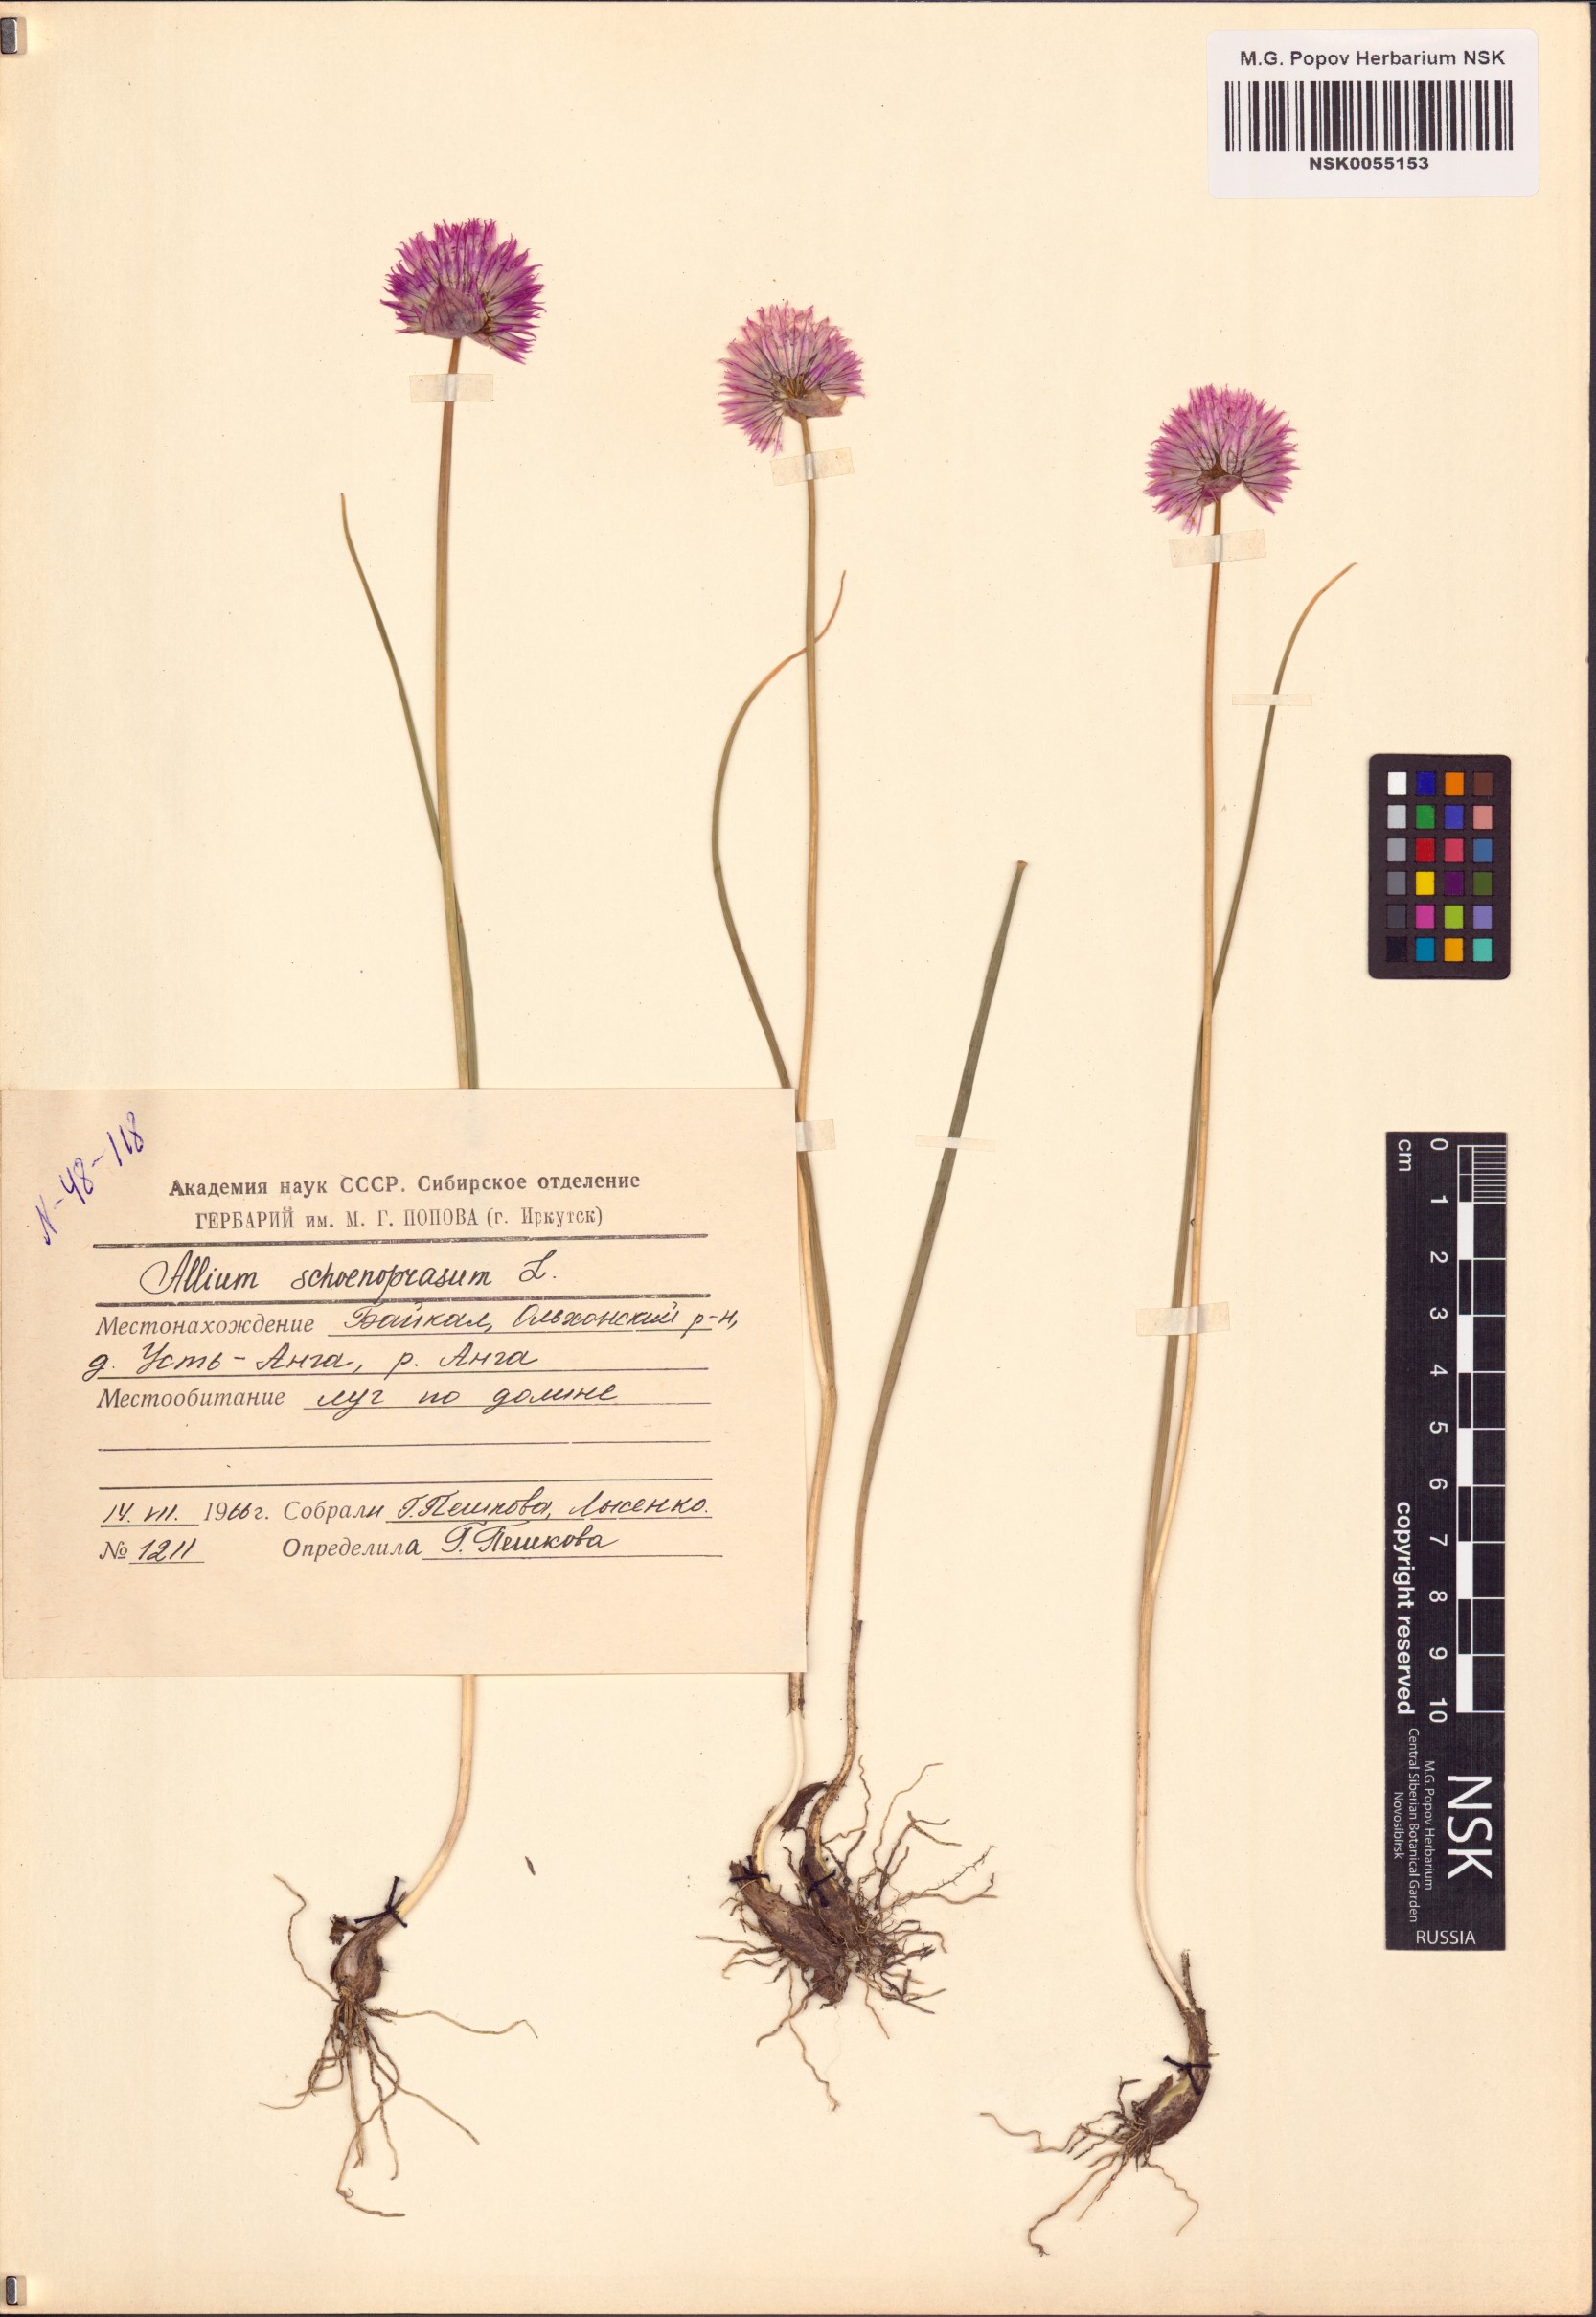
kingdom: Plantae
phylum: Tracheophyta
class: Liliopsida
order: Asparagales
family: Amaryllidaceae
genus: Allium
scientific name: Allium schoenoprasum
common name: Chives
